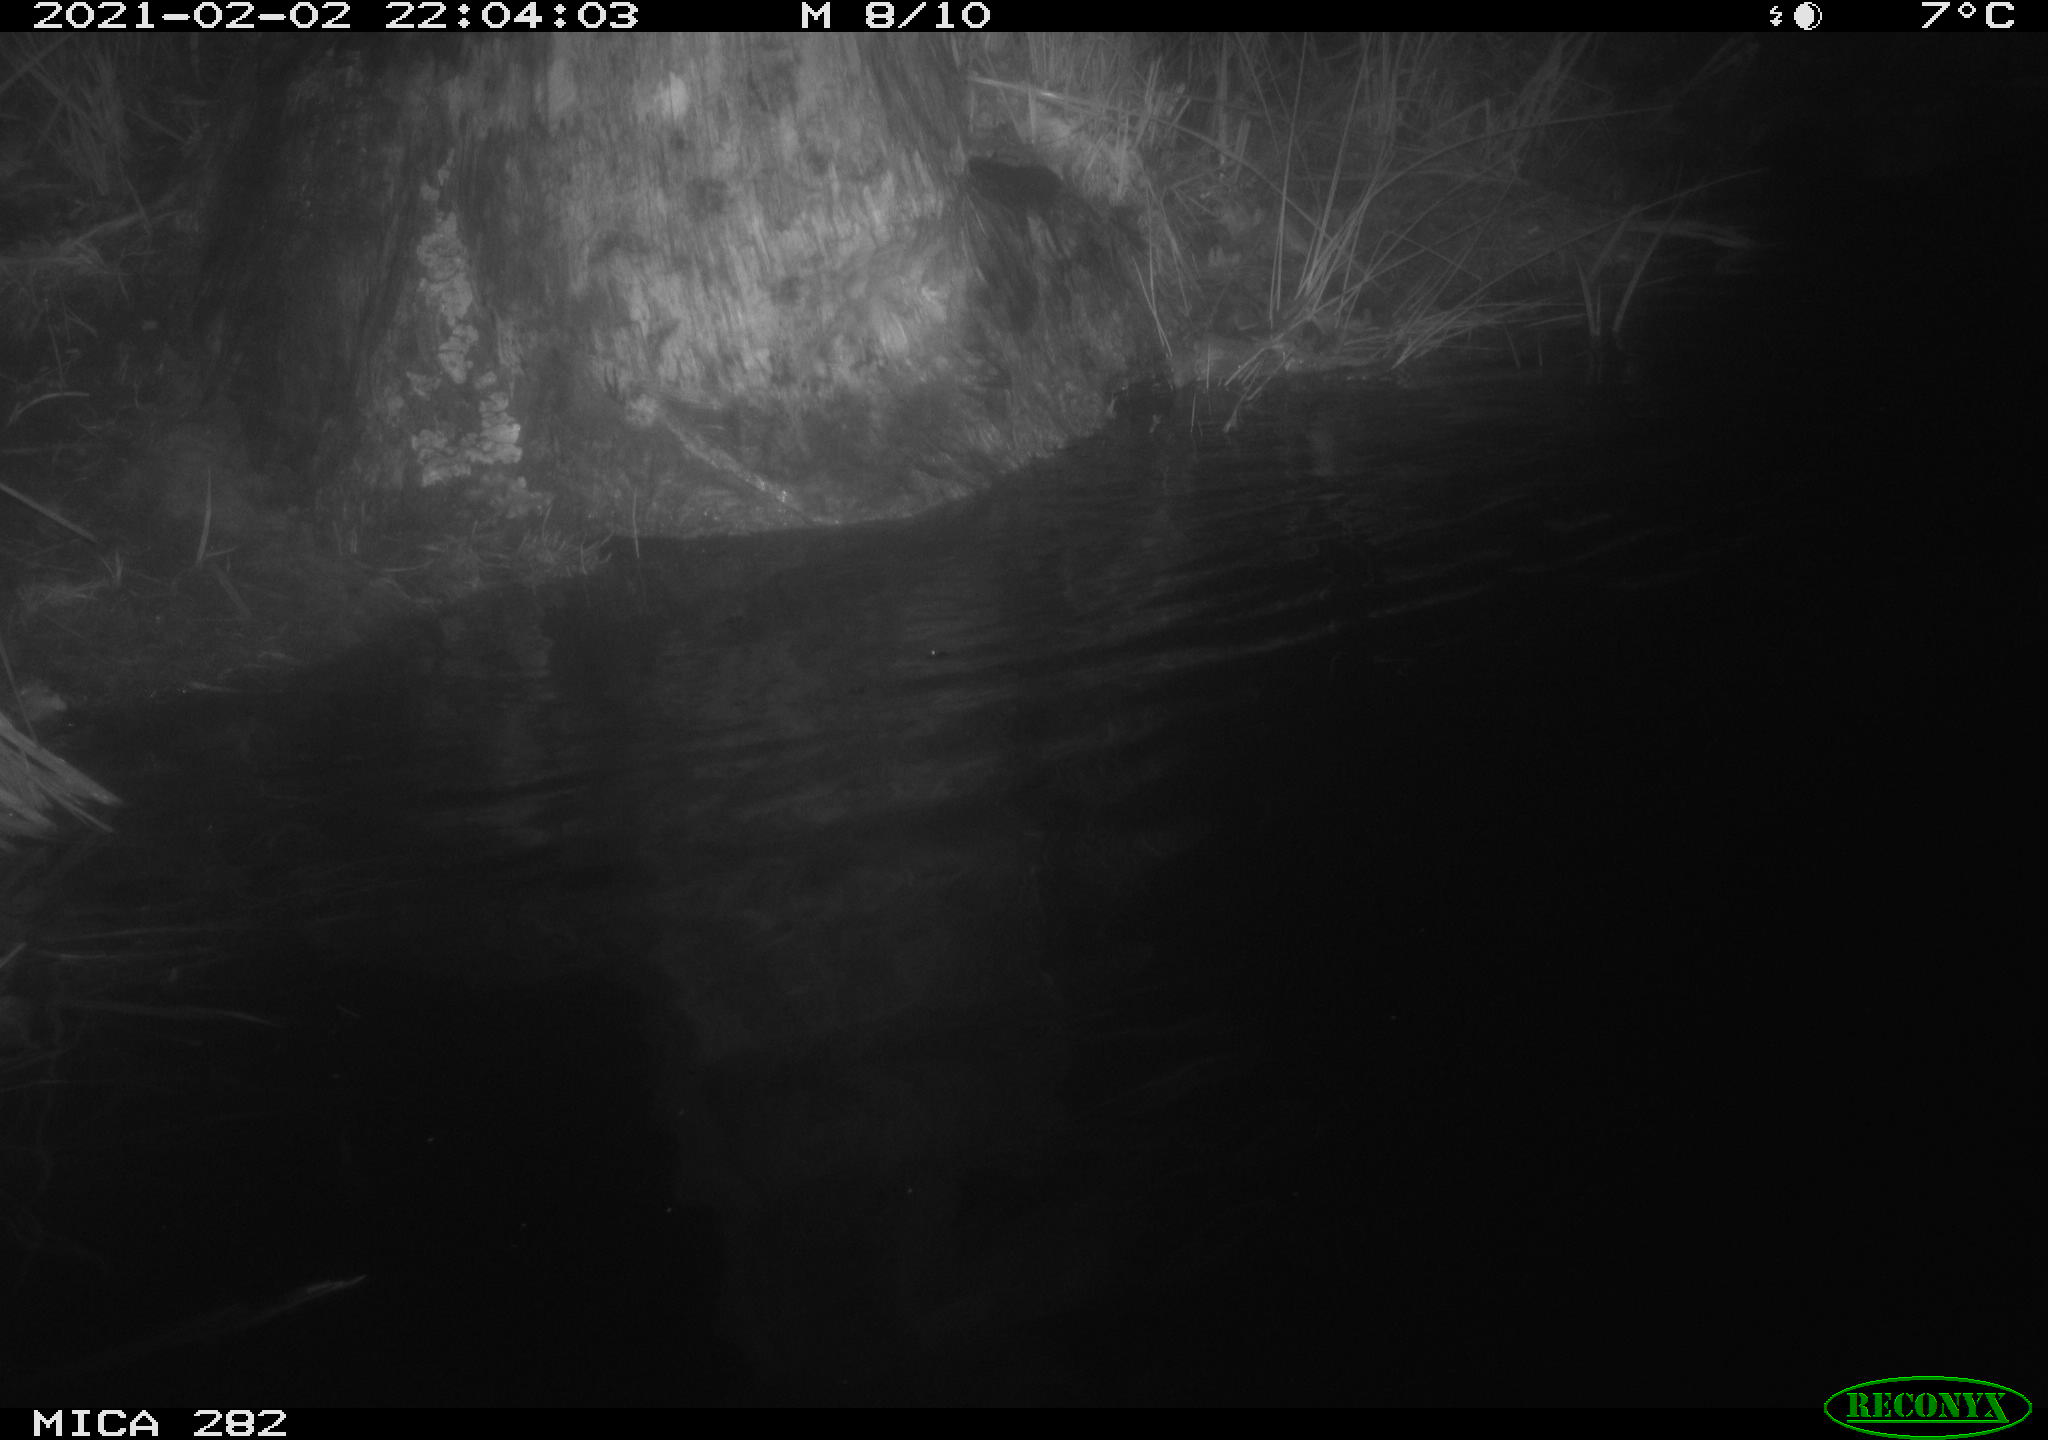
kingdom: Animalia
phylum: Chordata
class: Mammalia
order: Rodentia
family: Castoridae
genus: Castor
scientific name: Castor fiber
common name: Eurasian beaver
